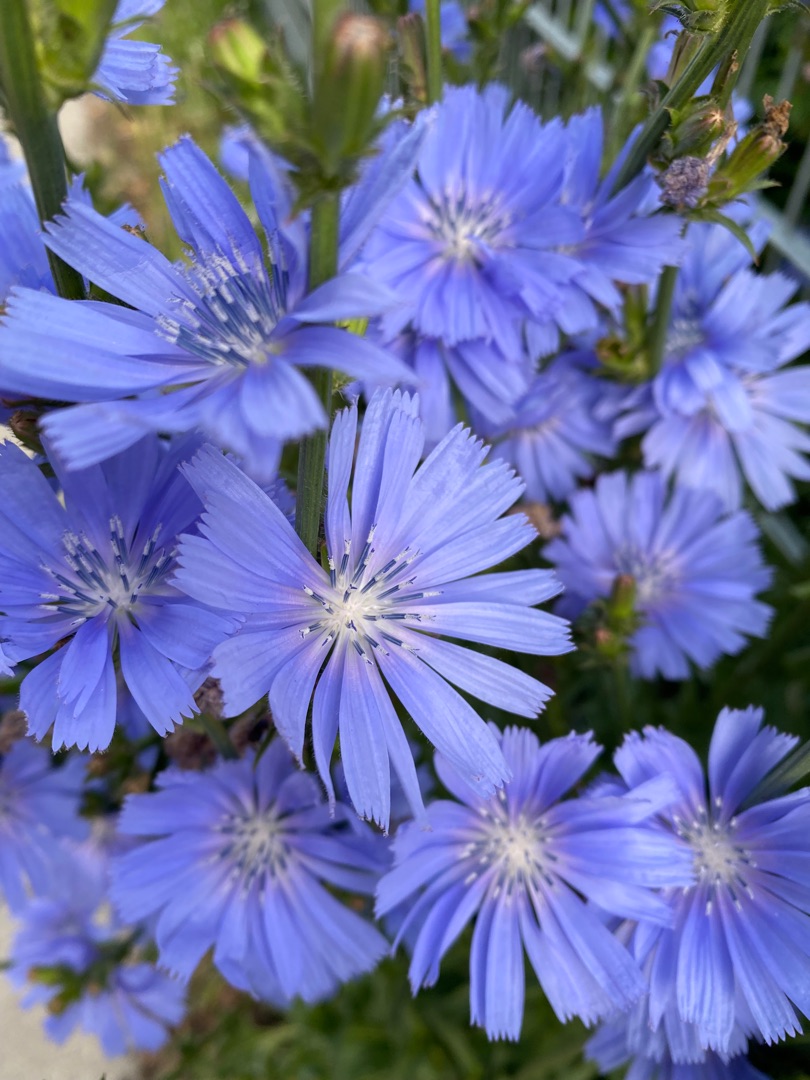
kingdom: Plantae
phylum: Tracheophyta
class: Magnoliopsida
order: Asterales
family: Asteraceae
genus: Cichorium
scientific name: Cichorium intybus
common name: Cikorie
